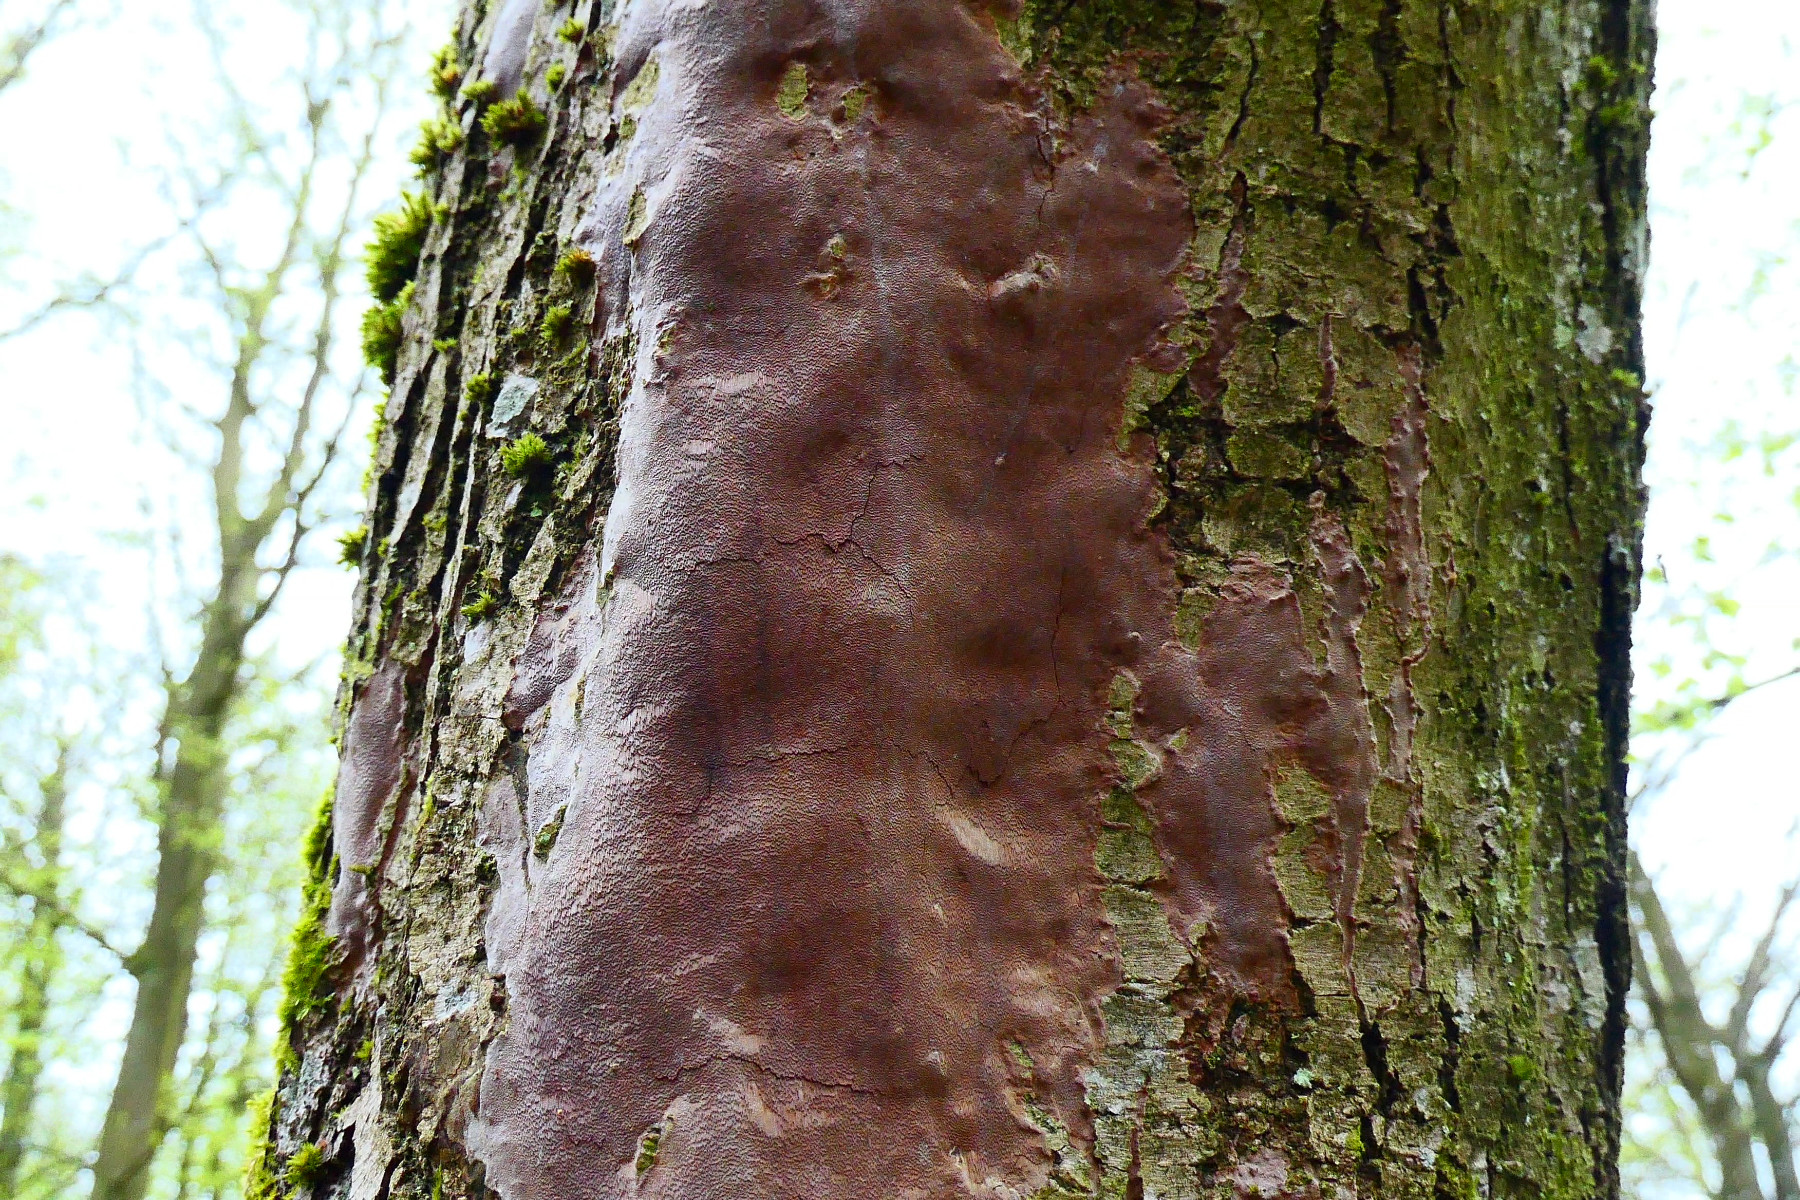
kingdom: Fungi
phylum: Basidiomycota
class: Agaricomycetes
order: Hymenochaetales
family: Hymenochaetaceae
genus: Fomitiporia
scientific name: Fomitiporia punctata
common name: pude-ildporesvamp
